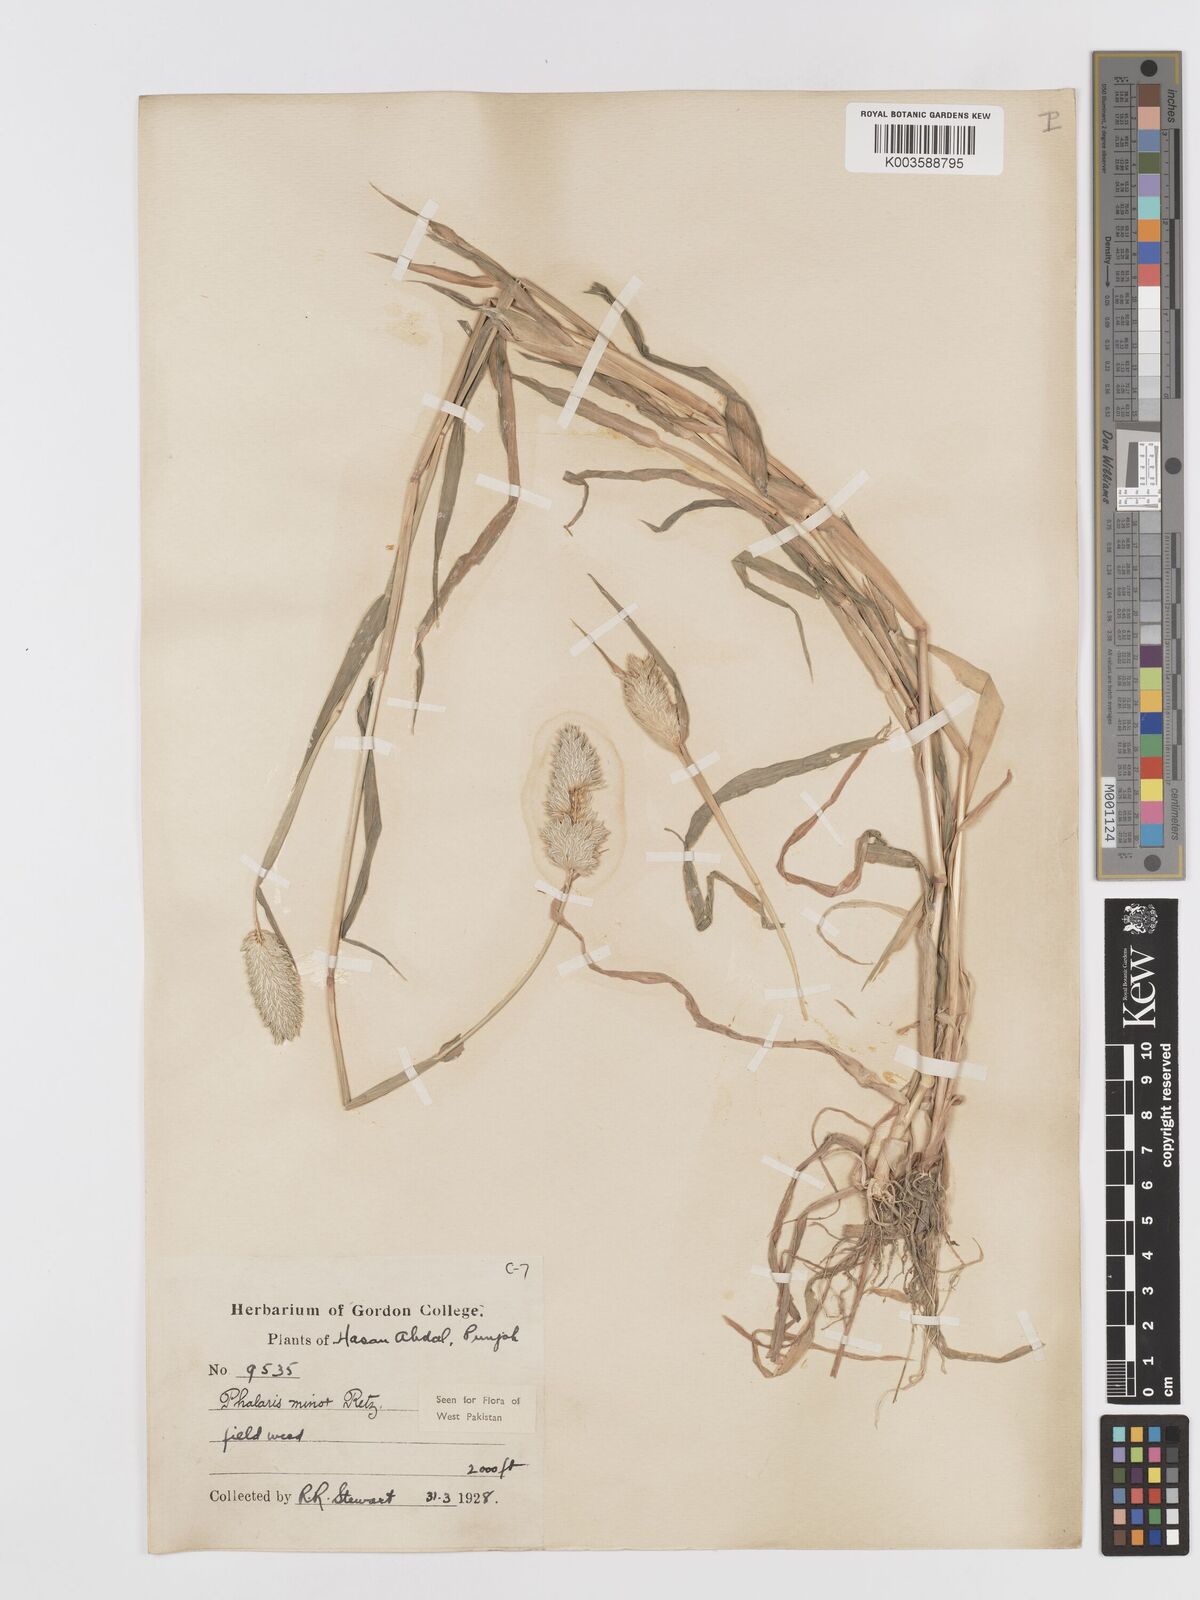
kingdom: Plantae
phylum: Tracheophyta
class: Liliopsida
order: Poales
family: Poaceae
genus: Phalaris
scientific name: Phalaris minor
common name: Littleseed canarygrass
